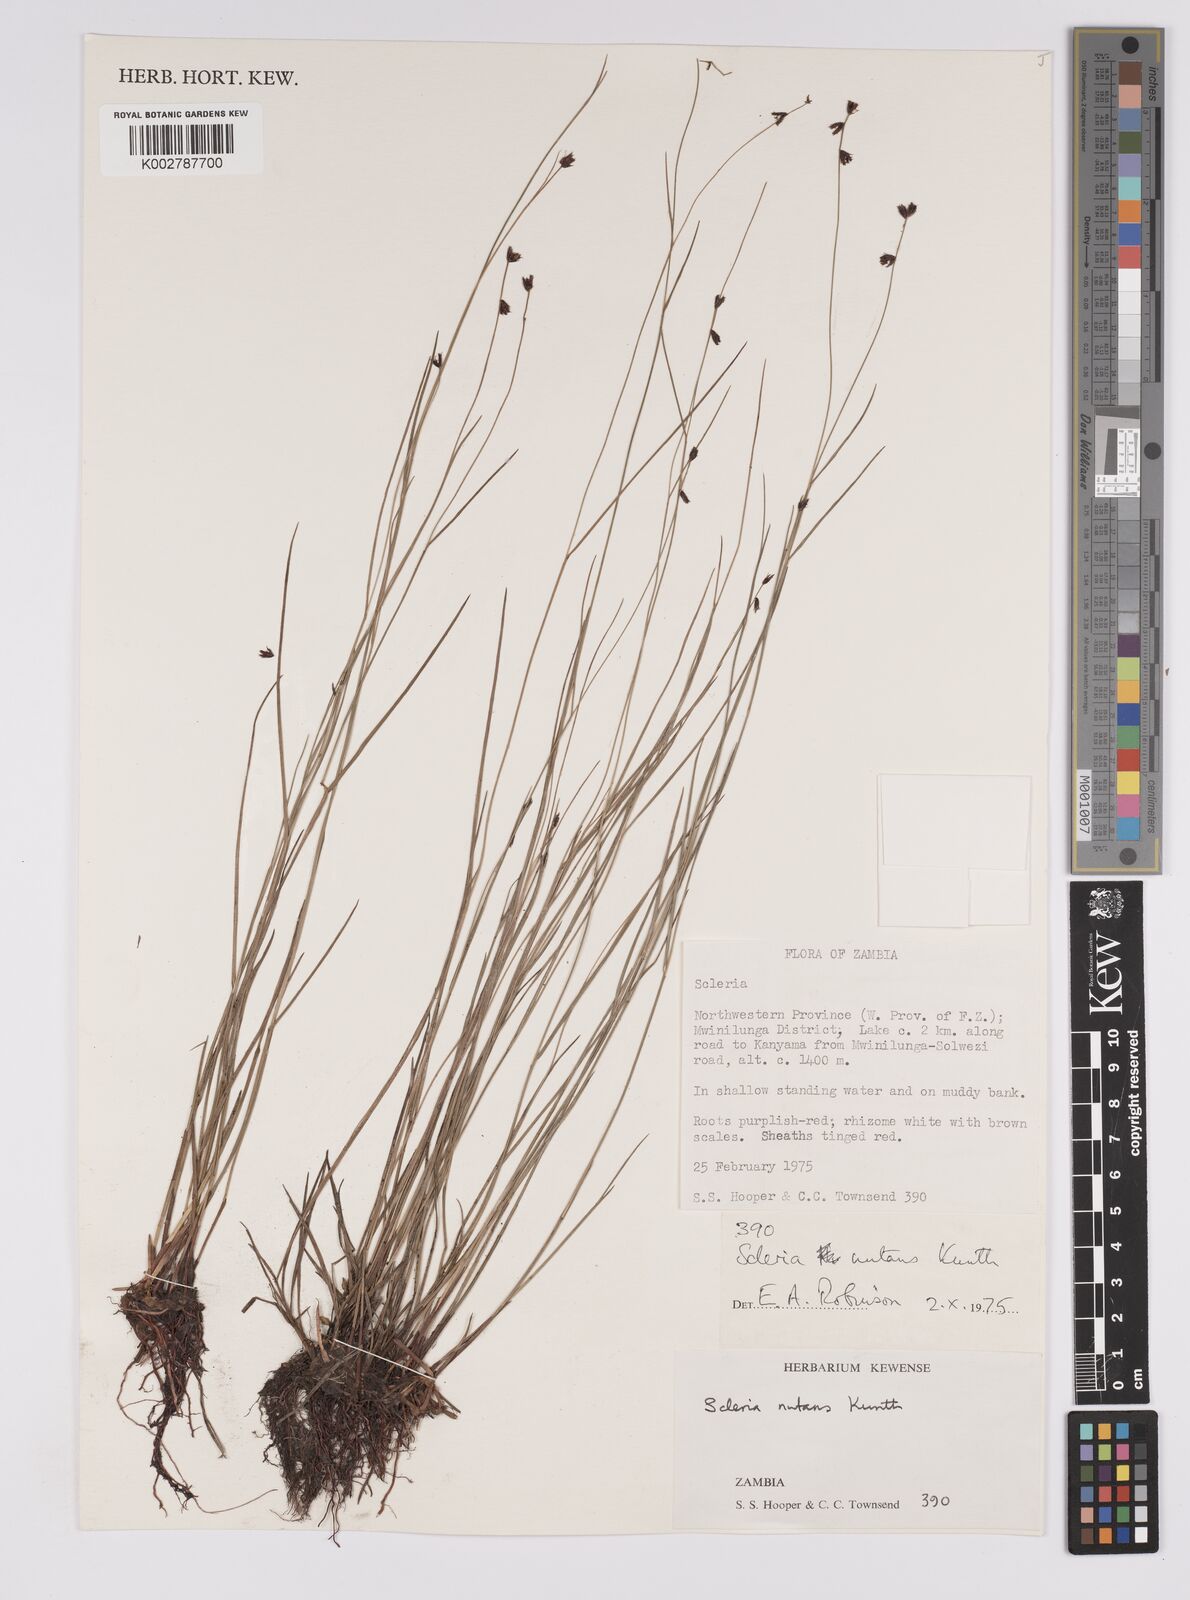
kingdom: Plantae
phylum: Tracheophyta
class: Liliopsida
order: Poales
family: Cyperaceae
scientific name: Cyperaceae
